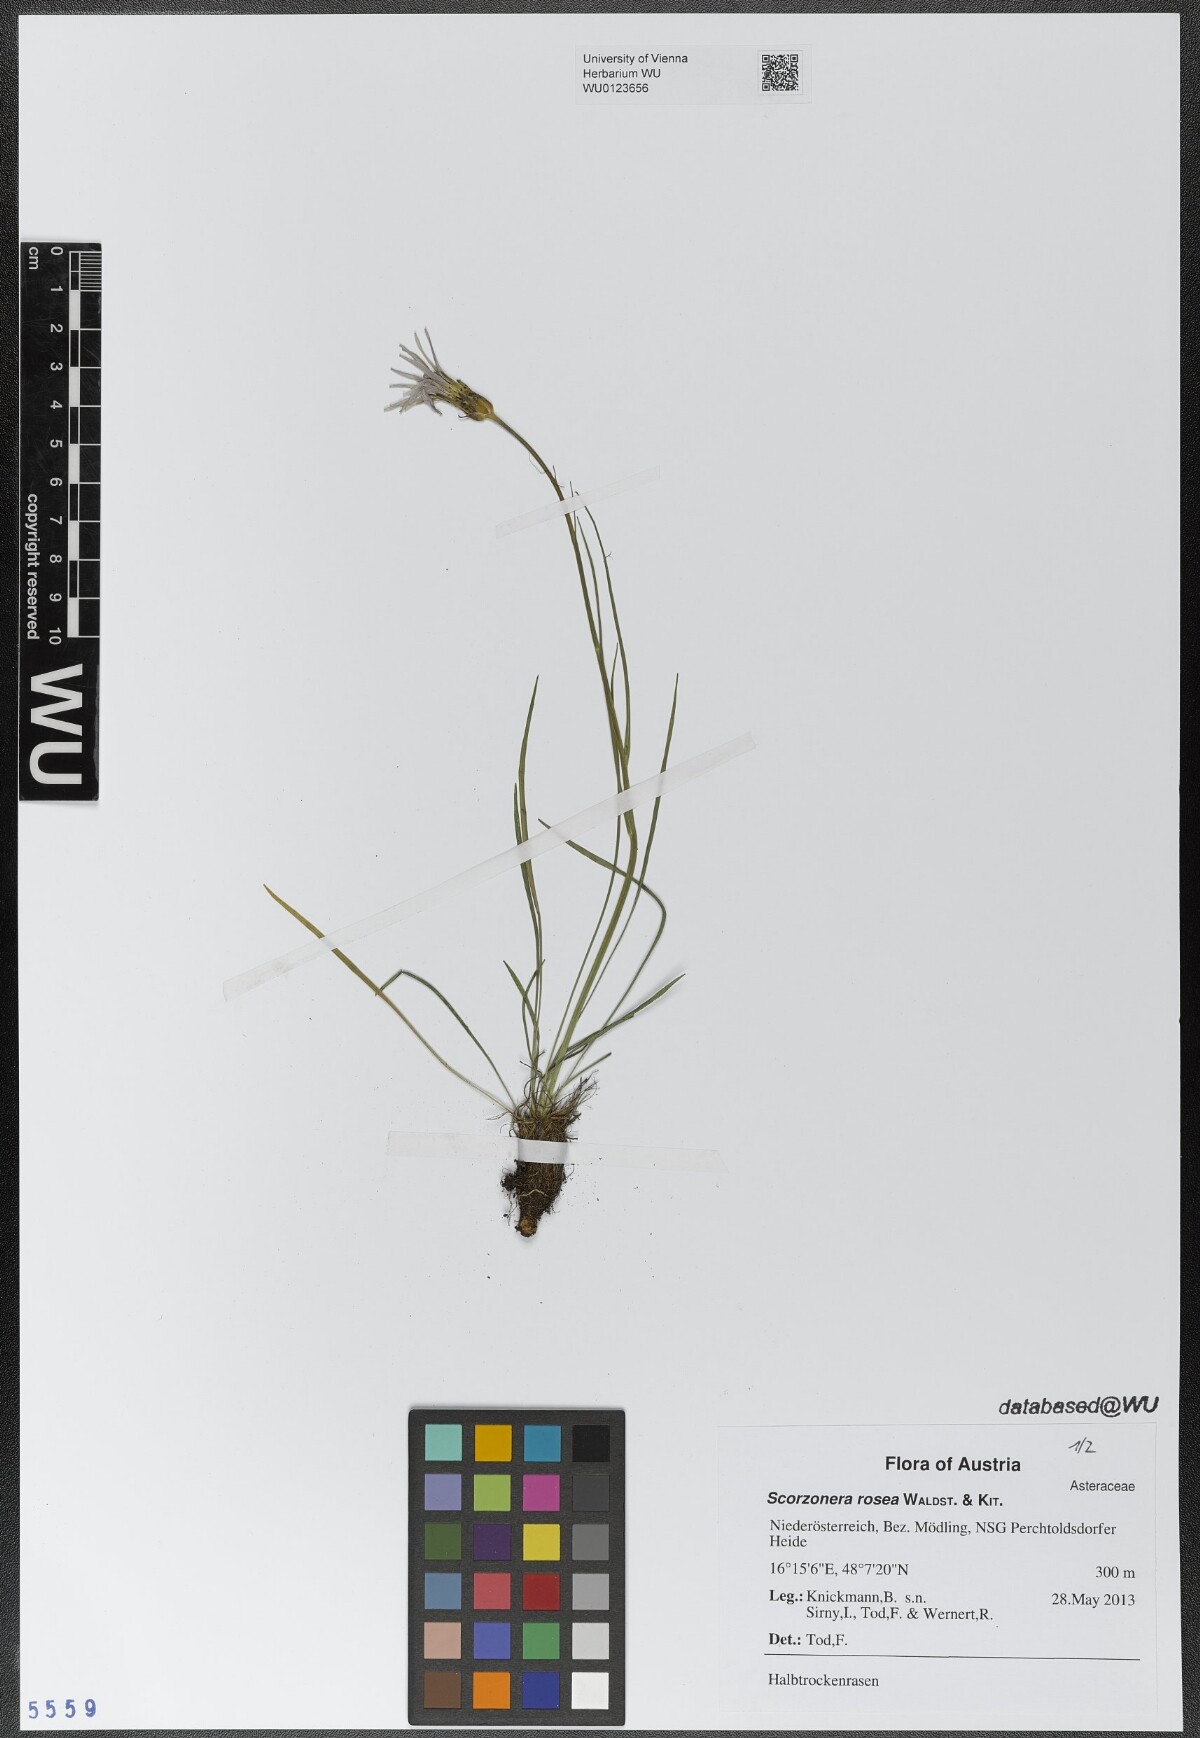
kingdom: Plantae
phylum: Tracheophyta
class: Magnoliopsida
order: Asterales
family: Asteraceae
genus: Scorzonera
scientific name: Scorzonera rosea
